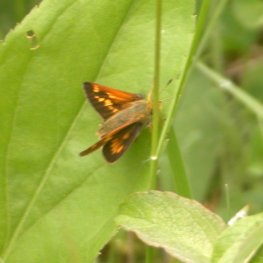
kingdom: Animalia
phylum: Arthropoda
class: Insecta
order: Lepidoptera
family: Hesperiidae
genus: Polites
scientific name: Polites
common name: Long Dash Skipper
